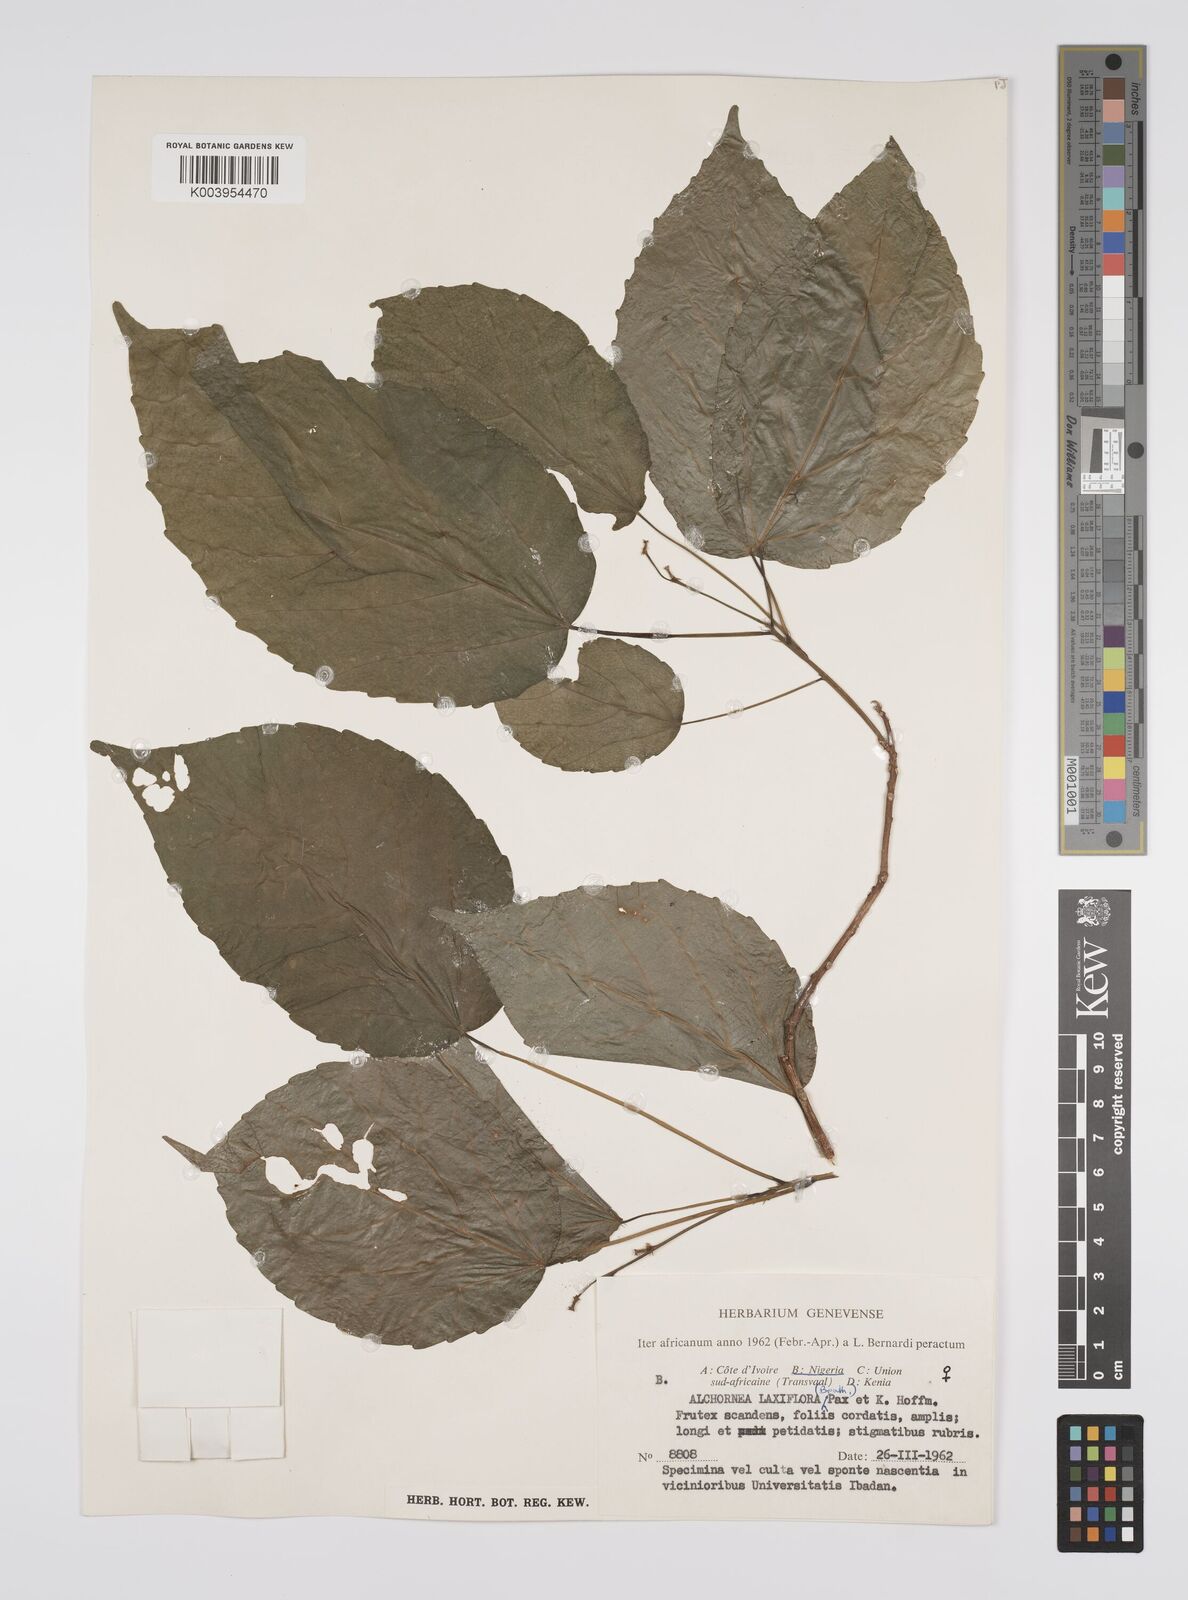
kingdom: Plantae
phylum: Tracheophyta
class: Magnoliopsida
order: Malpighiales
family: Euphorbiaceae
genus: Alchornea
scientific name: Alchornea laxiflora
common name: Lowveld bead-string
